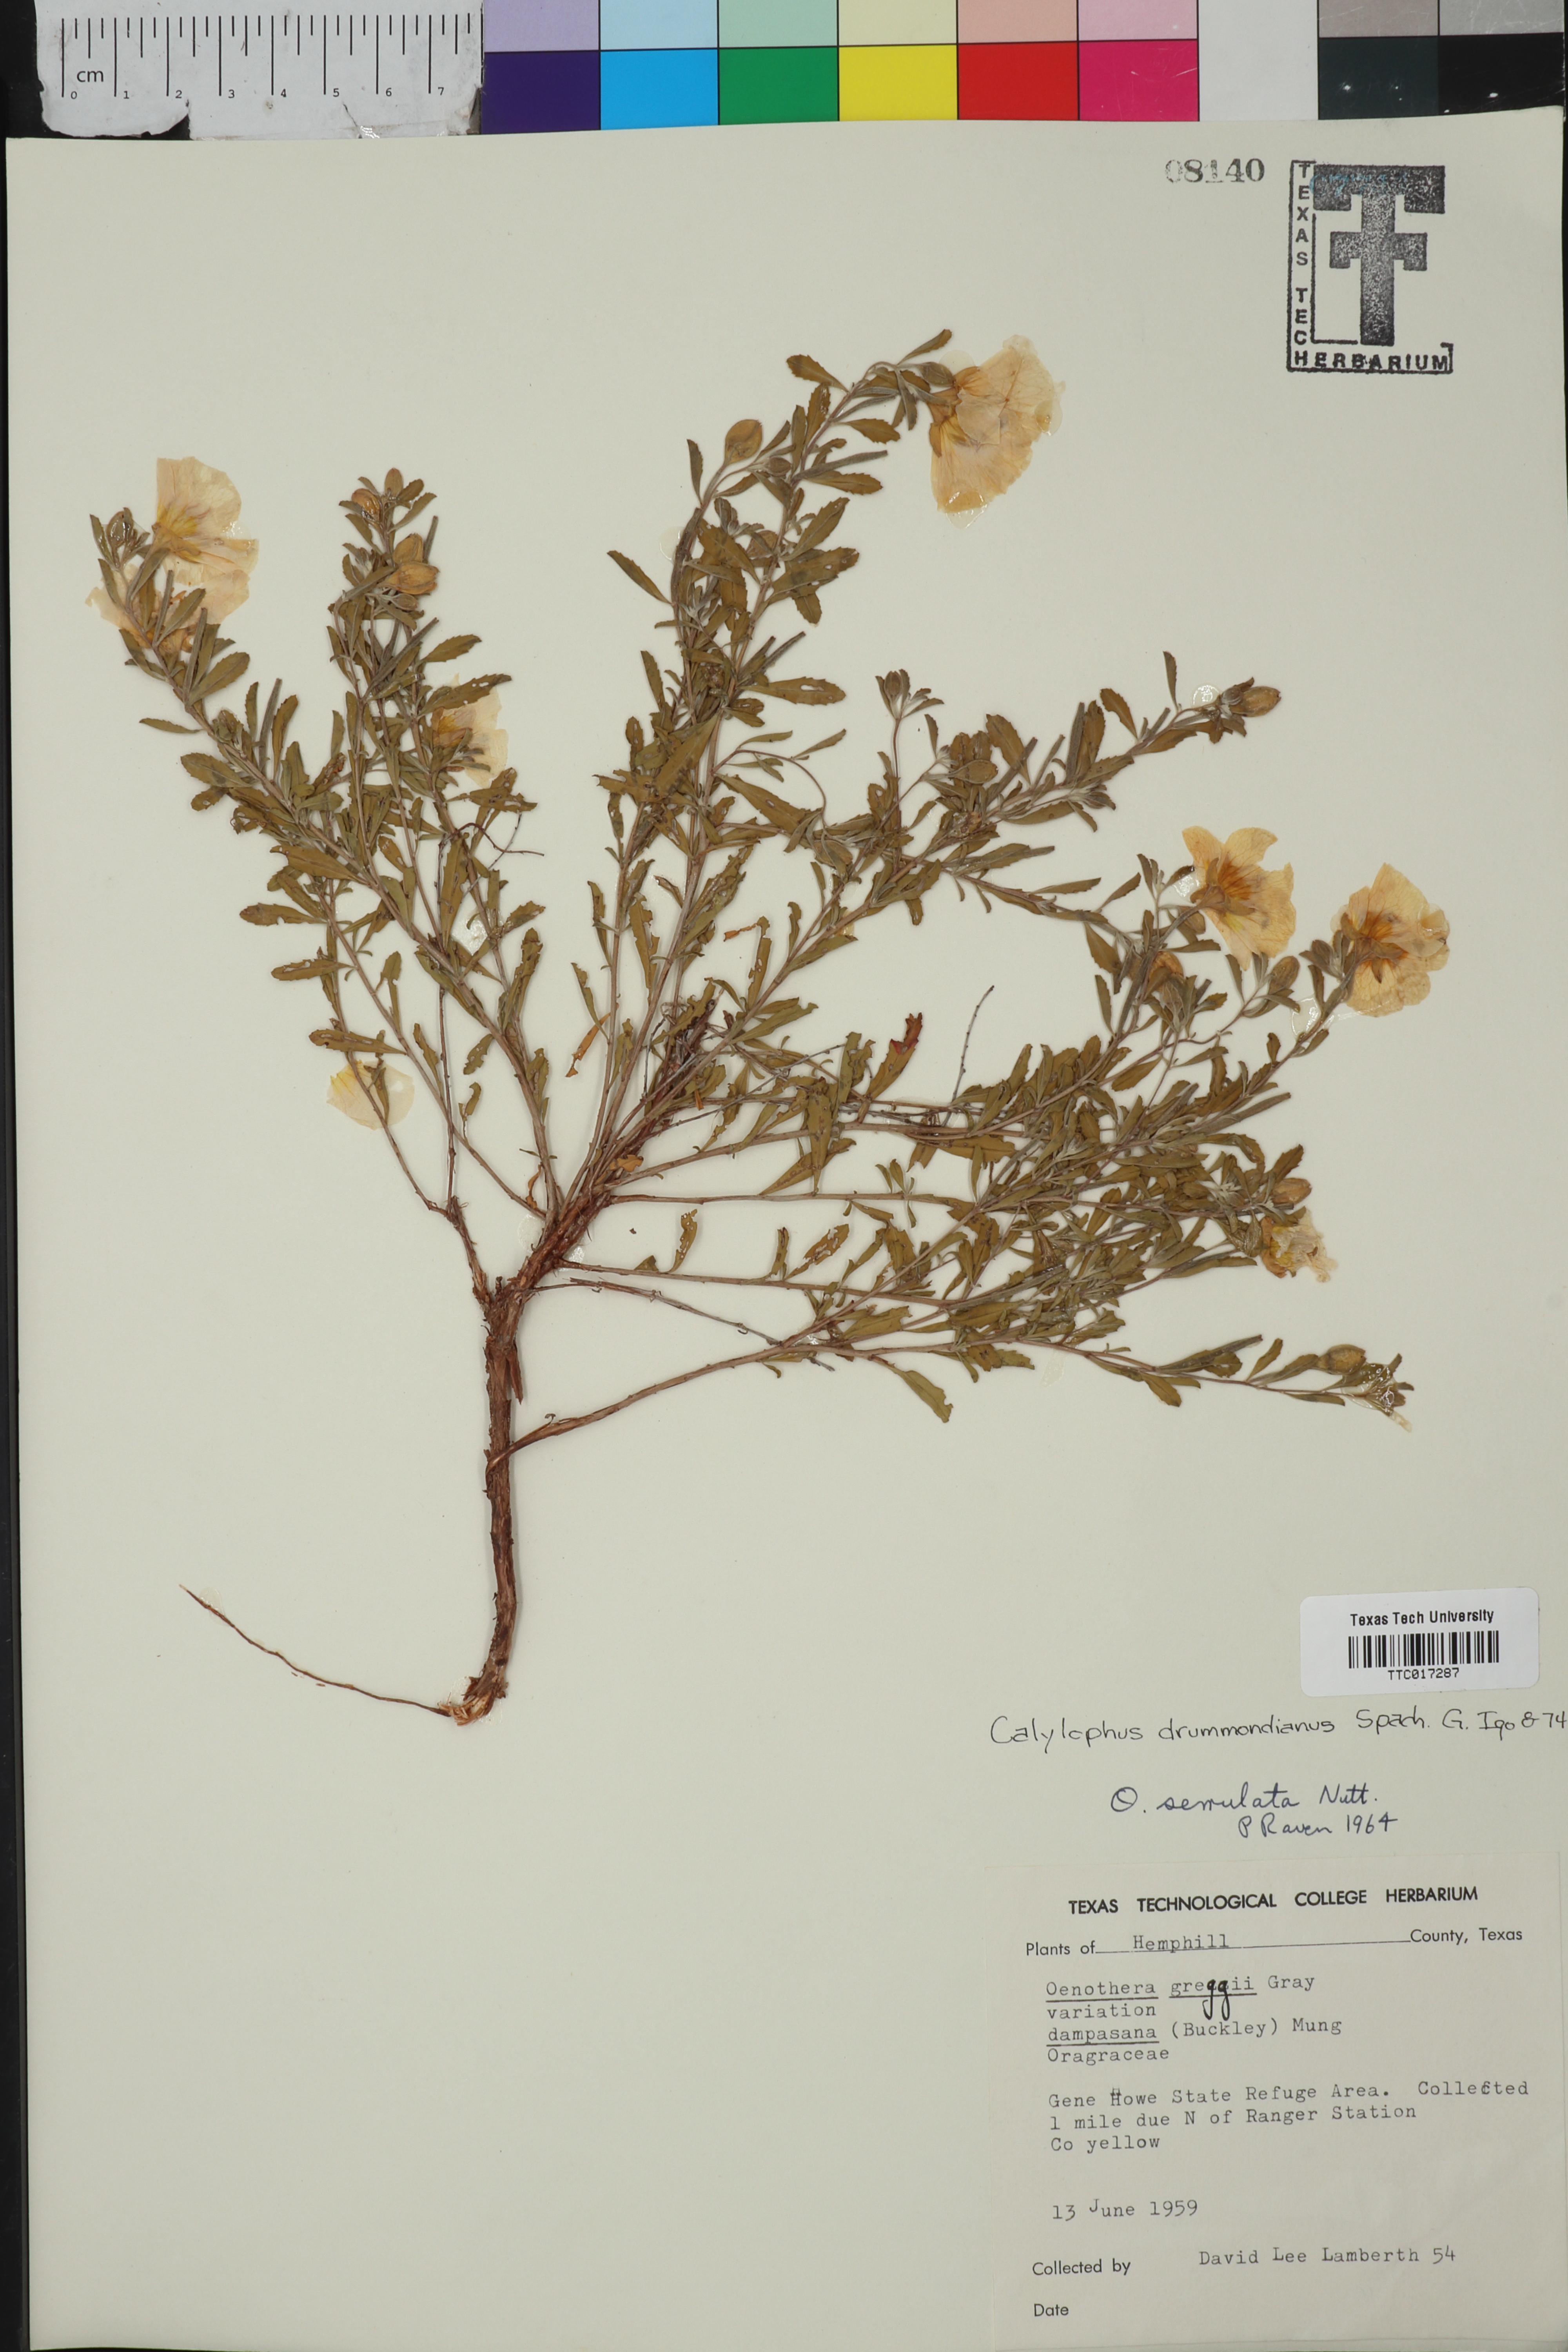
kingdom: Plantae
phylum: Tracheophyta
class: Magnoliopsida
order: Myrtales
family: Onagraceae
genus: Oenothera
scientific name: Oenothera serrulata
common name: Half-shrub calylophus
